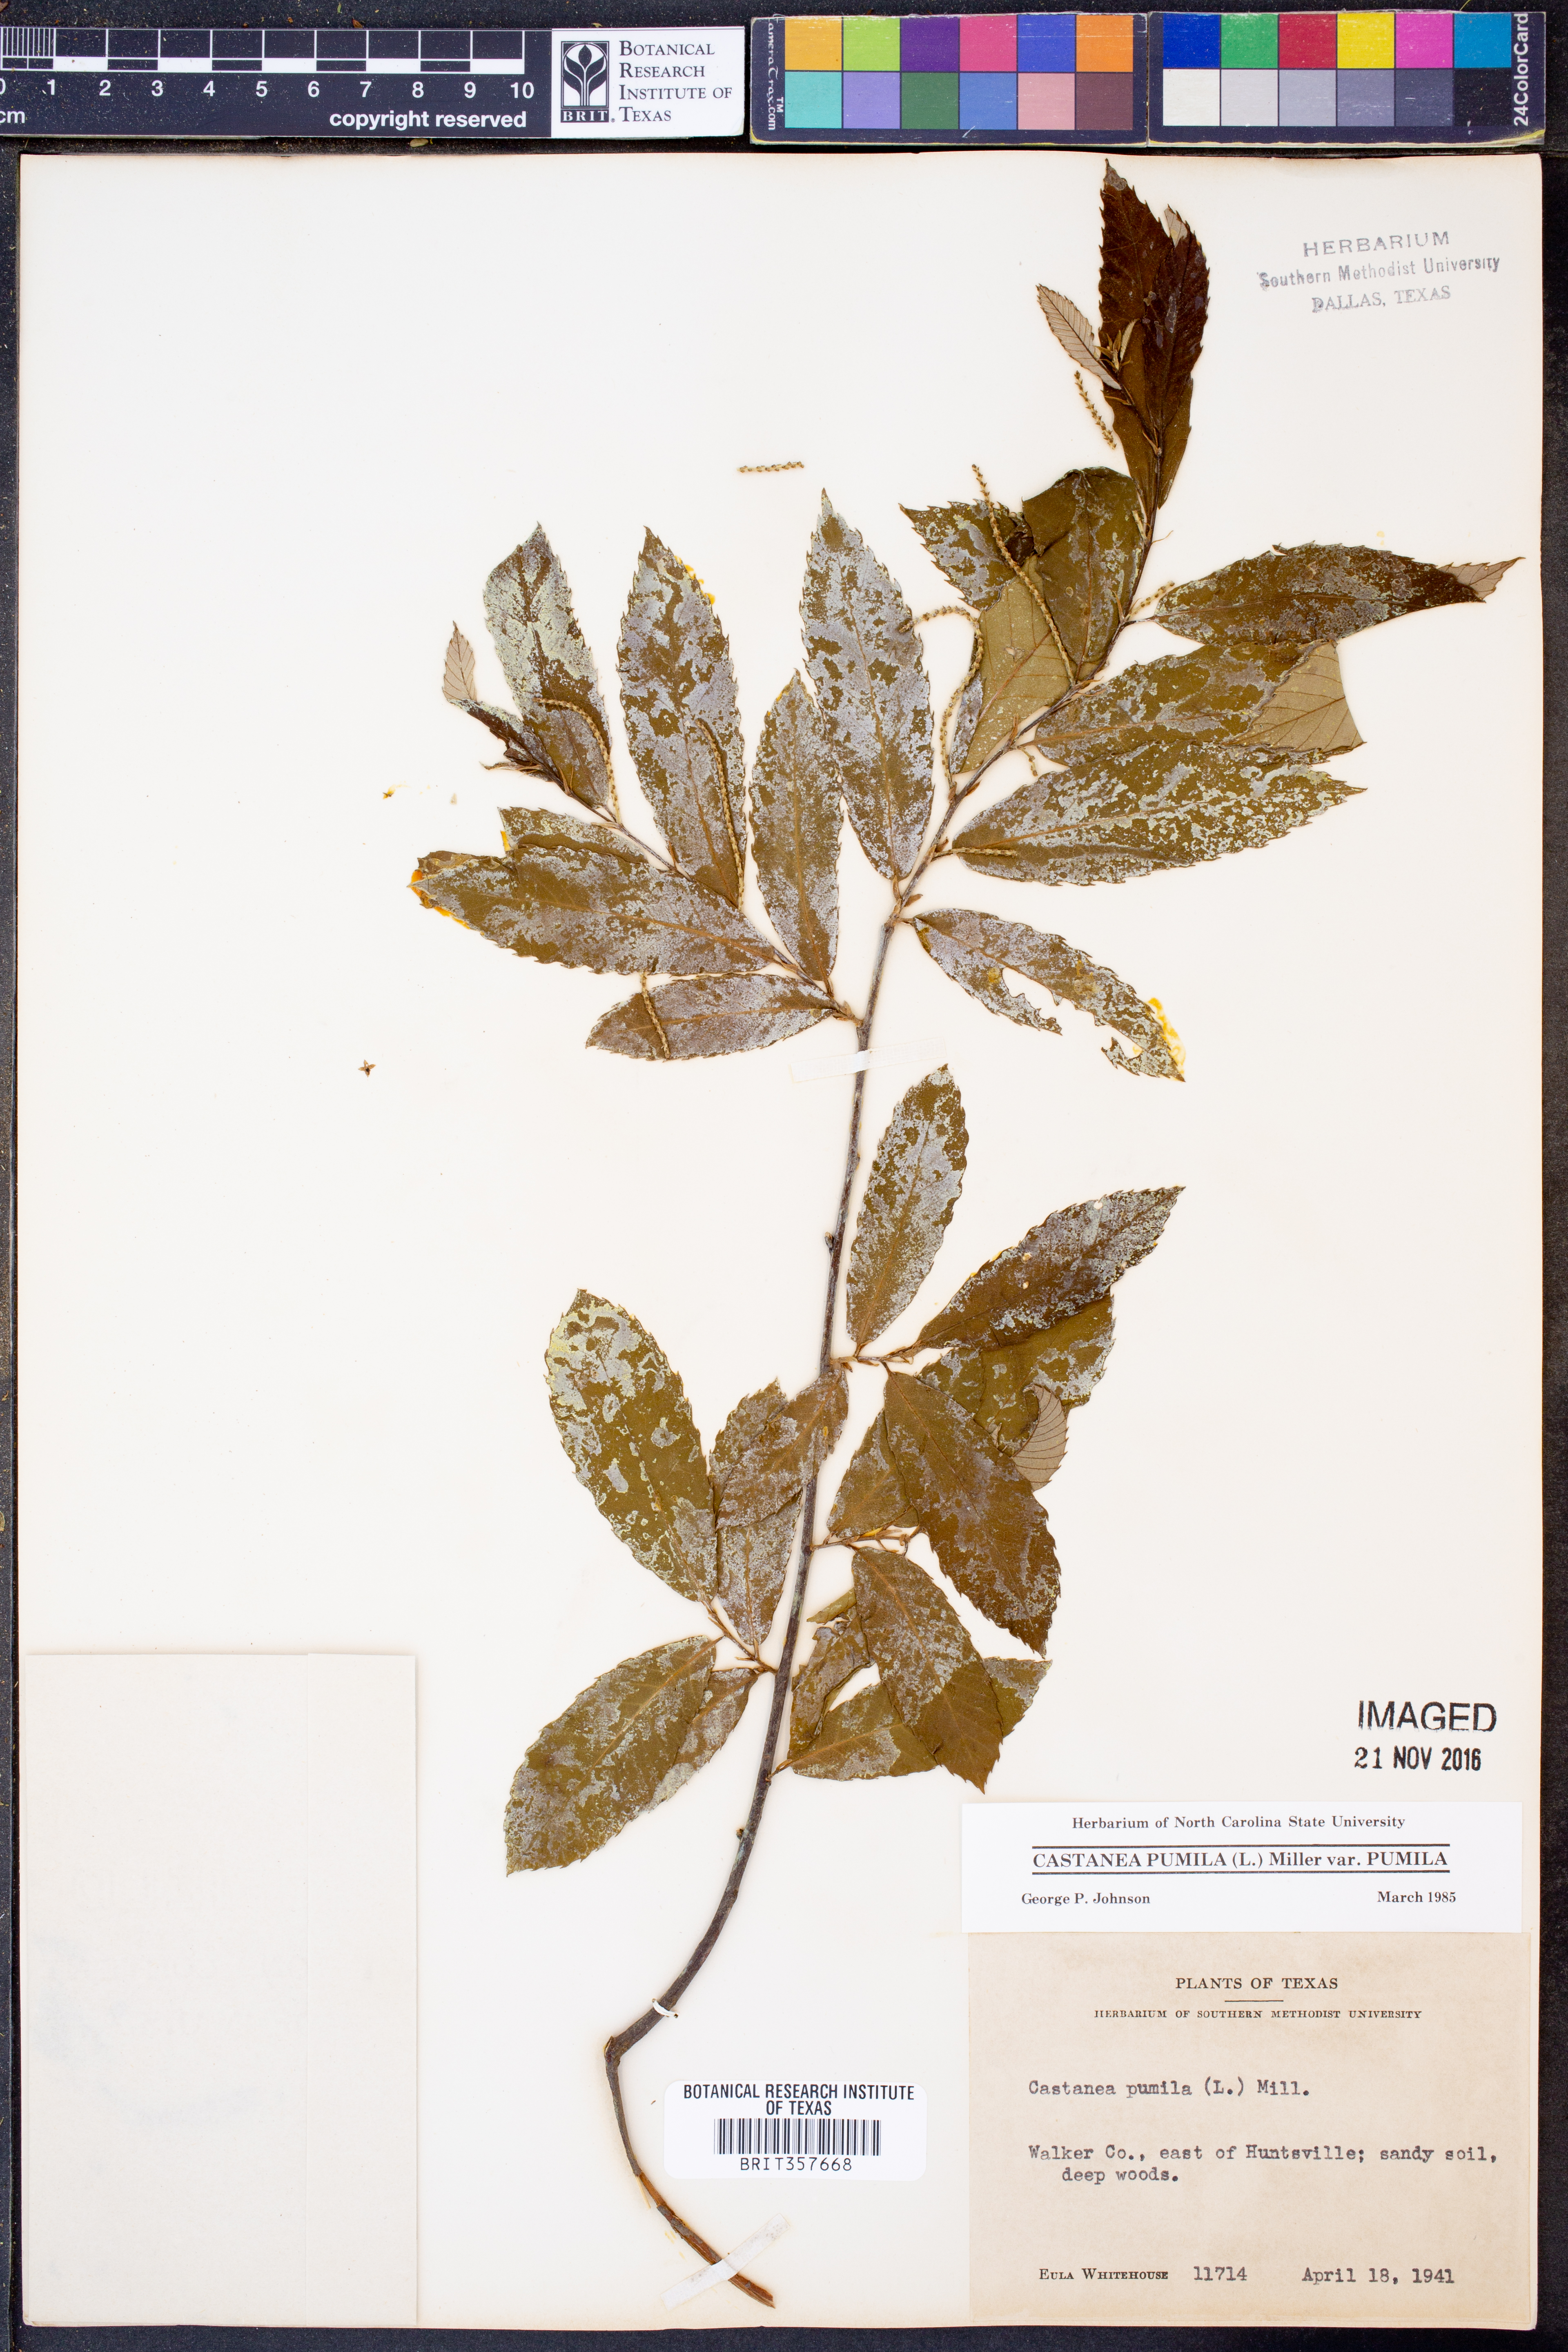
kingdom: Plantae
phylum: Tracheophyta
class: Magnoliopsida
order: Fagales
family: Fagaceae
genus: Castanea
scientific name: Castanea pumila
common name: Chinkapin
